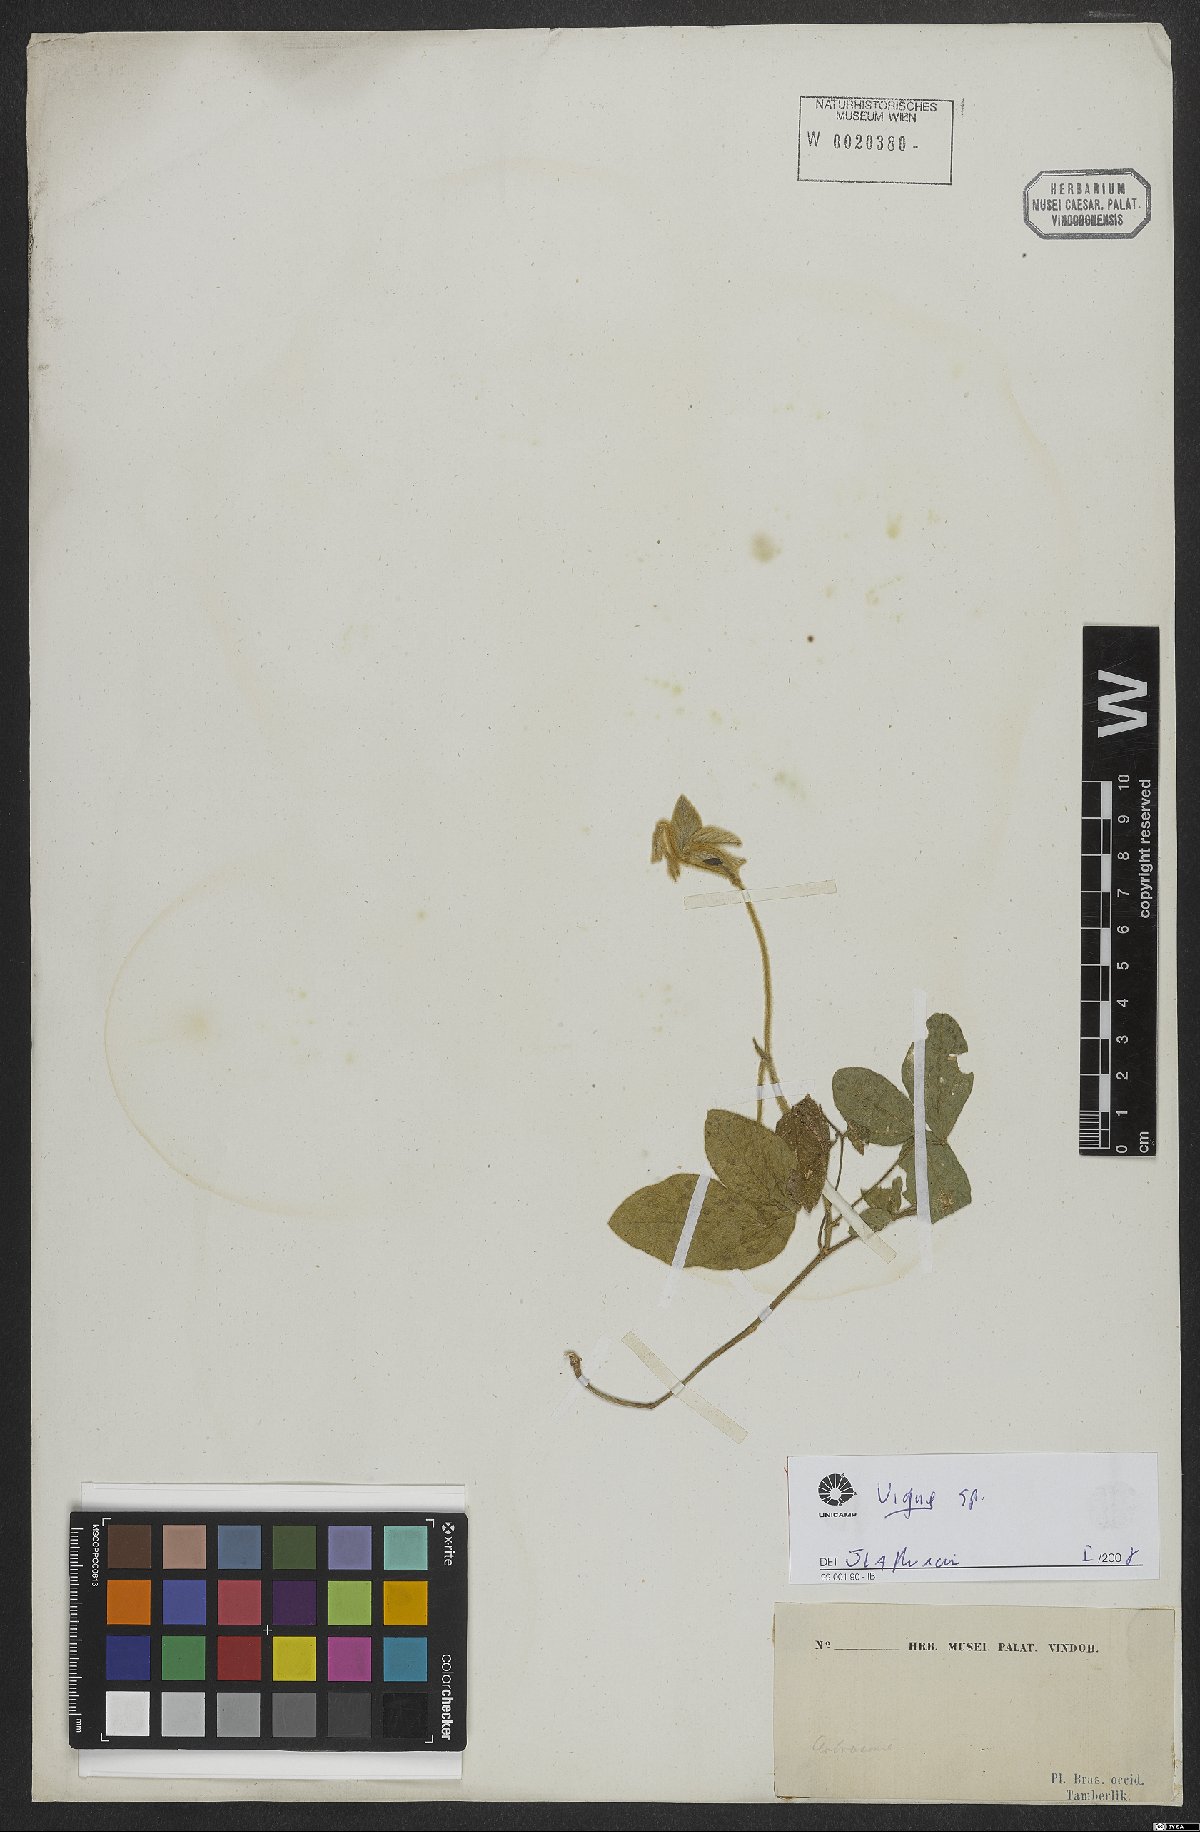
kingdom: Plantae
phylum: Tracheophyta
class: Magnoliopsida
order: Fabales
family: Fabaceae
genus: Vigna
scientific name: Vigna
